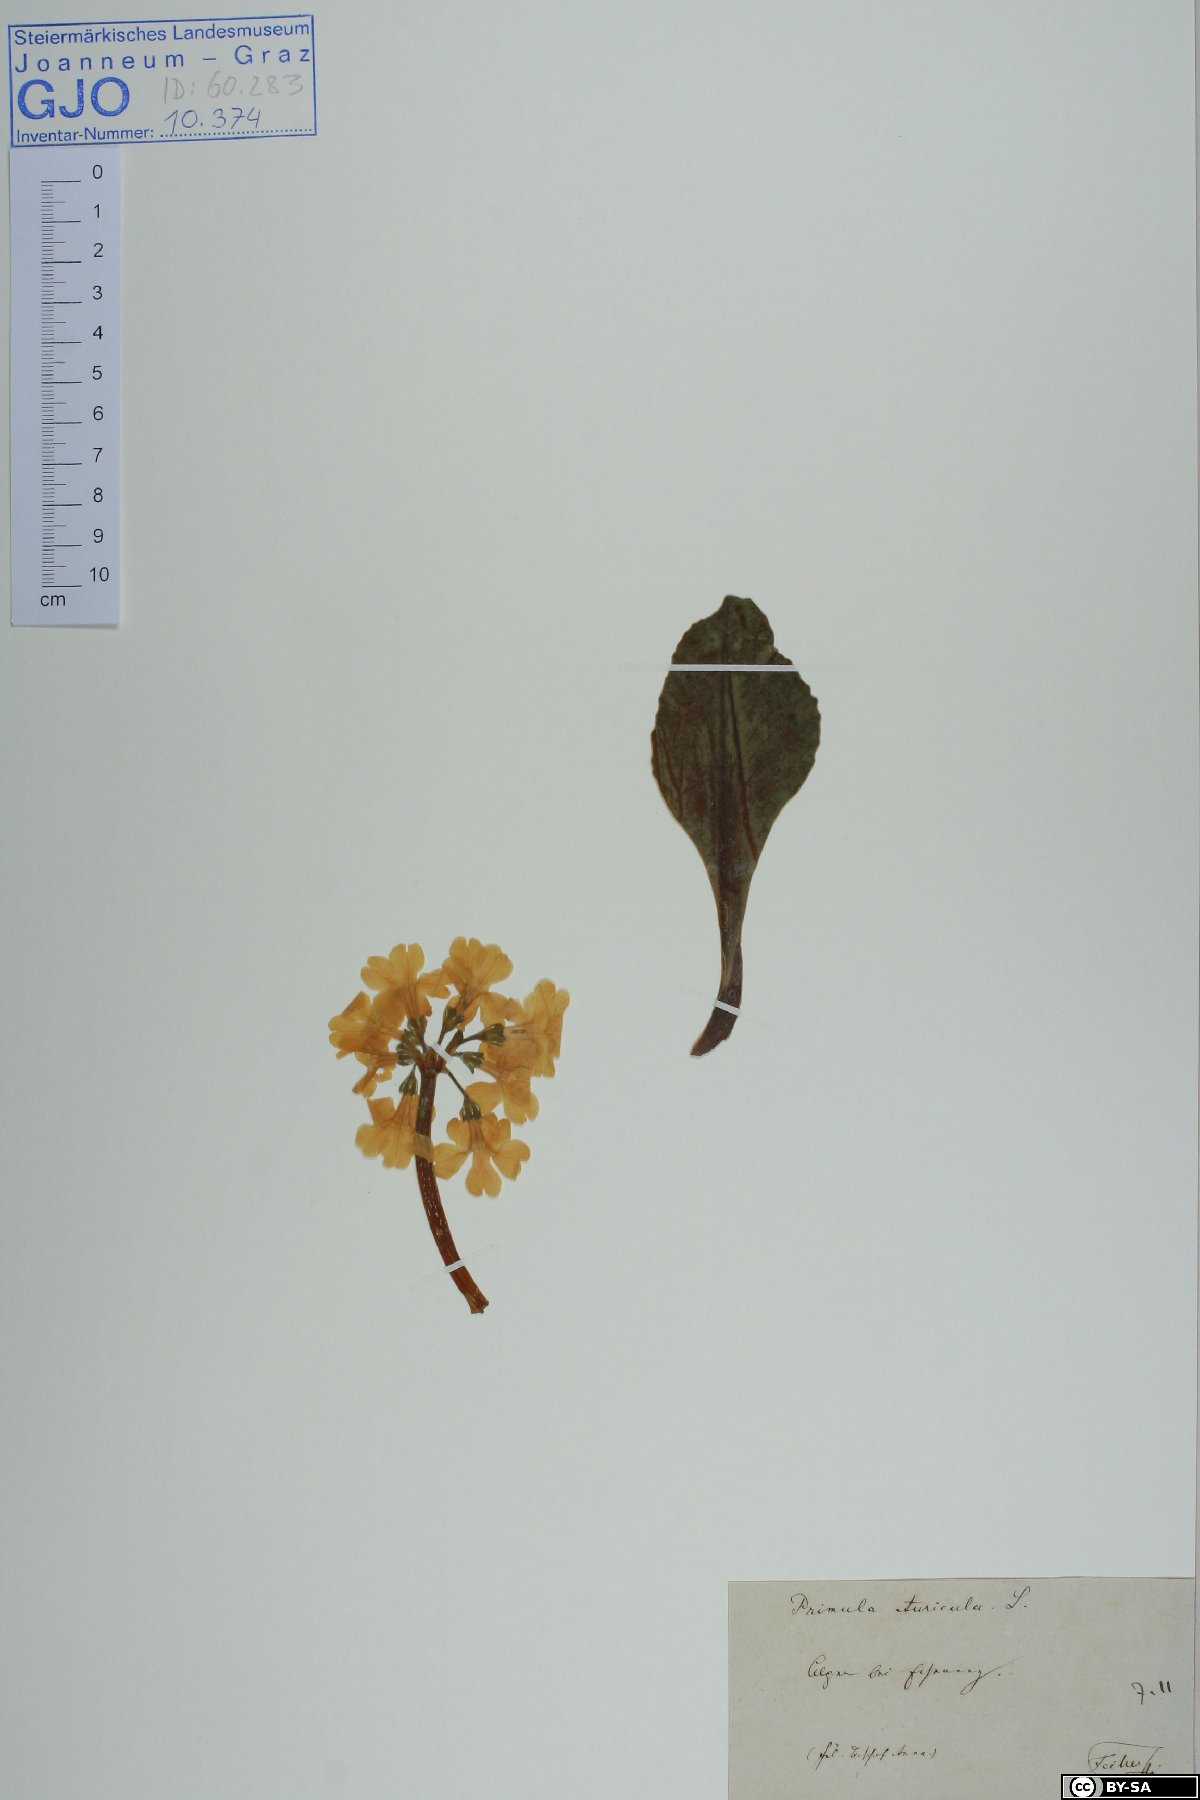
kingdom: Plantae
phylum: Tracheophyta
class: Magnoliopsida
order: Ericales
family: Primulaceae
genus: Primula
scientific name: Primula auricula
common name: Auricula
